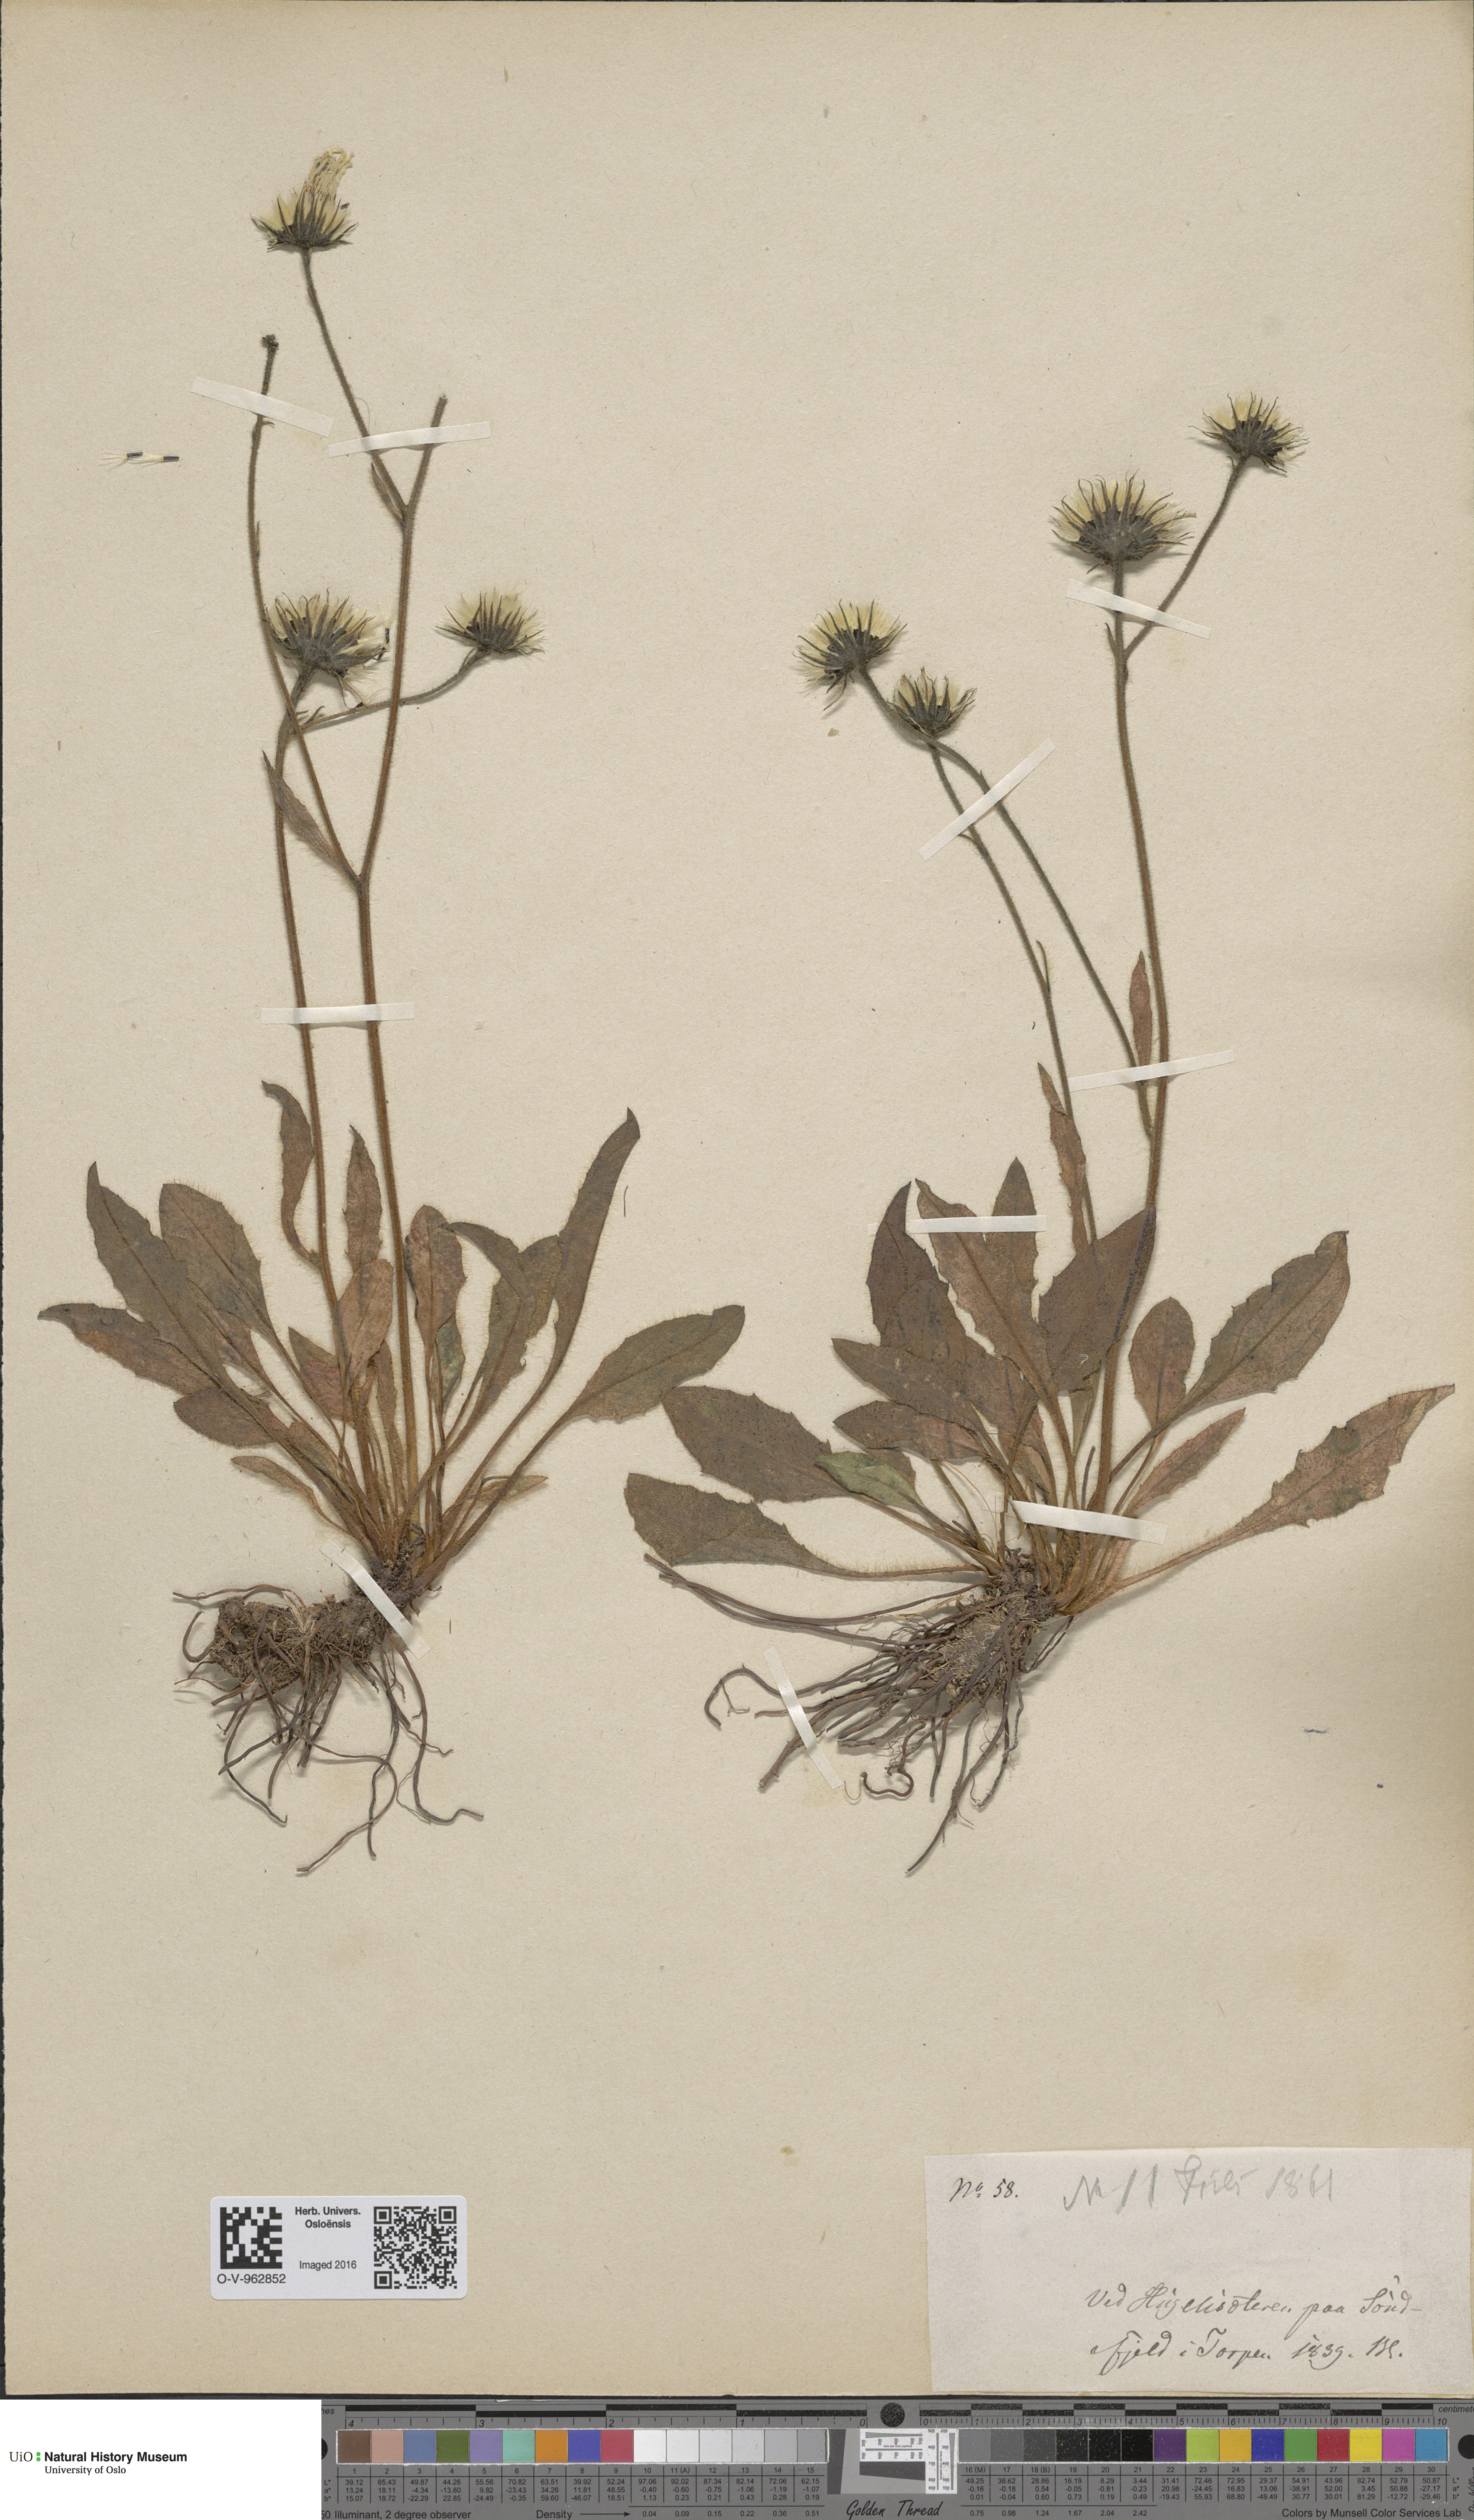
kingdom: Plantae
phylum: Tracheophyta
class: Magnoliopsida
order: Asterales
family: Asteraceae
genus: Hieracium
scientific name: Hieracium
